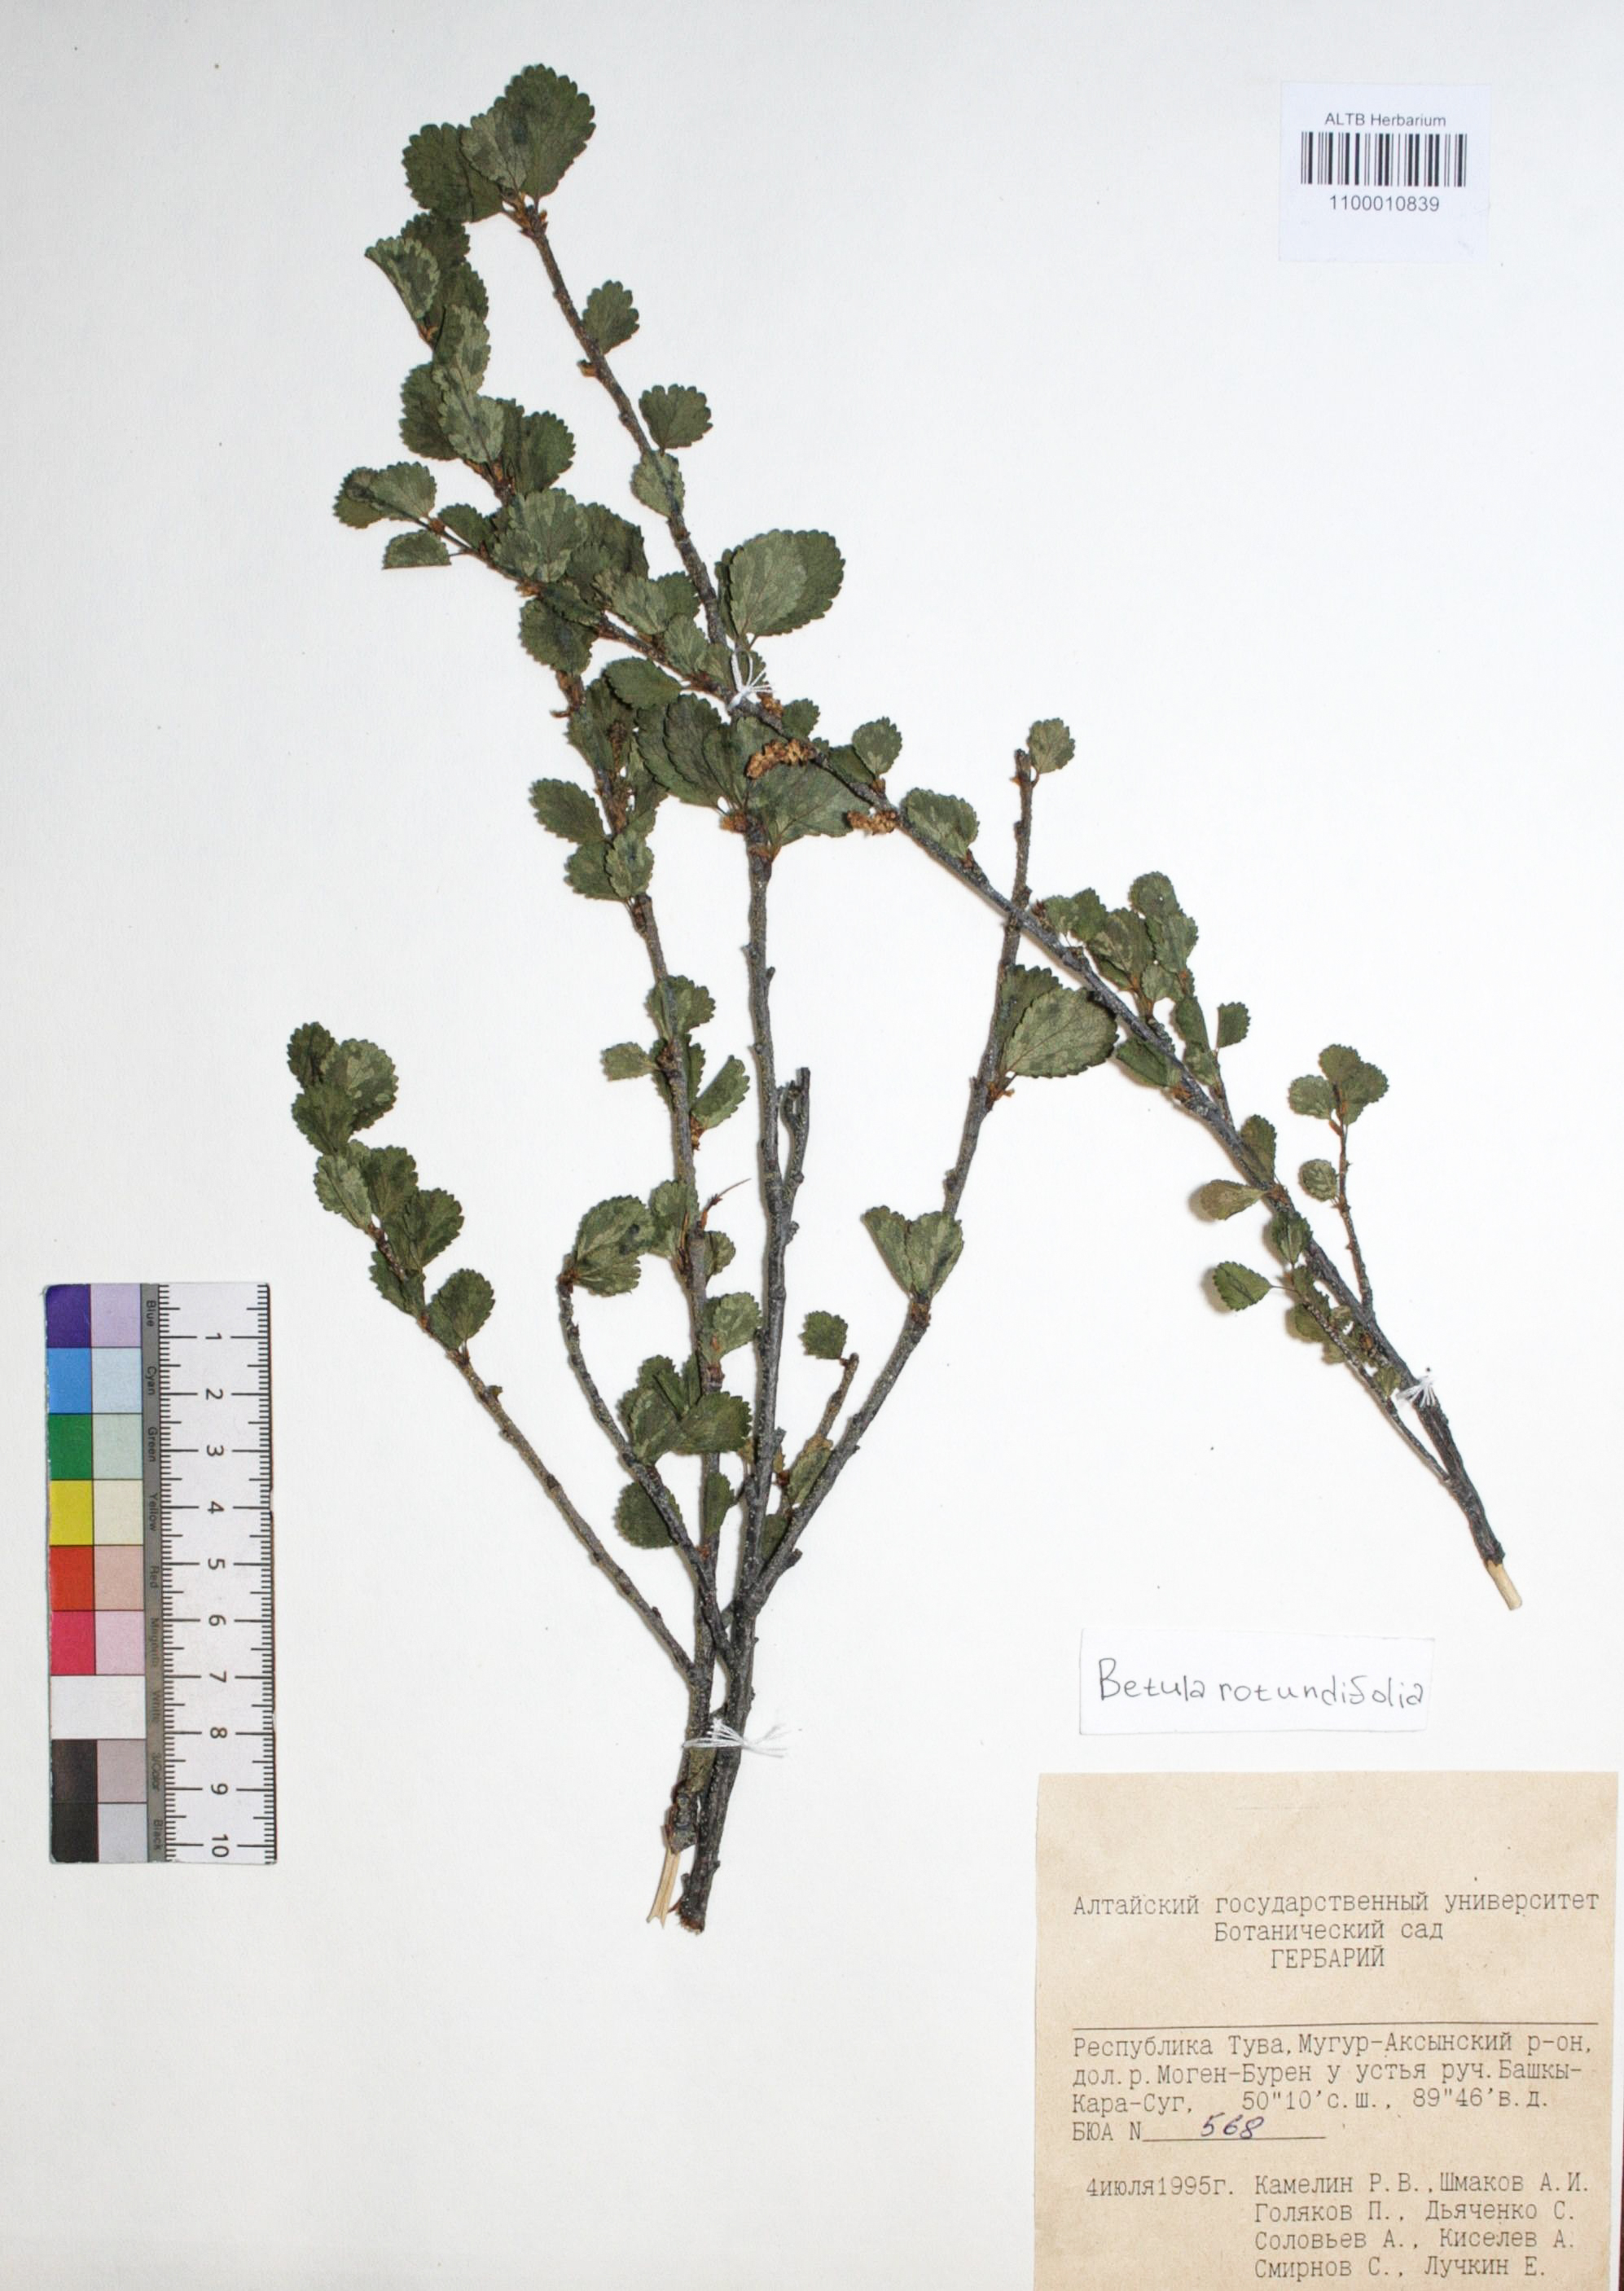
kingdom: Plantae
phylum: Tracheophyta
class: Magnoliopsida
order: Fagales
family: Betulaceae
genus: Betula
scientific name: Betula glandulosa
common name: Dwarf birch
